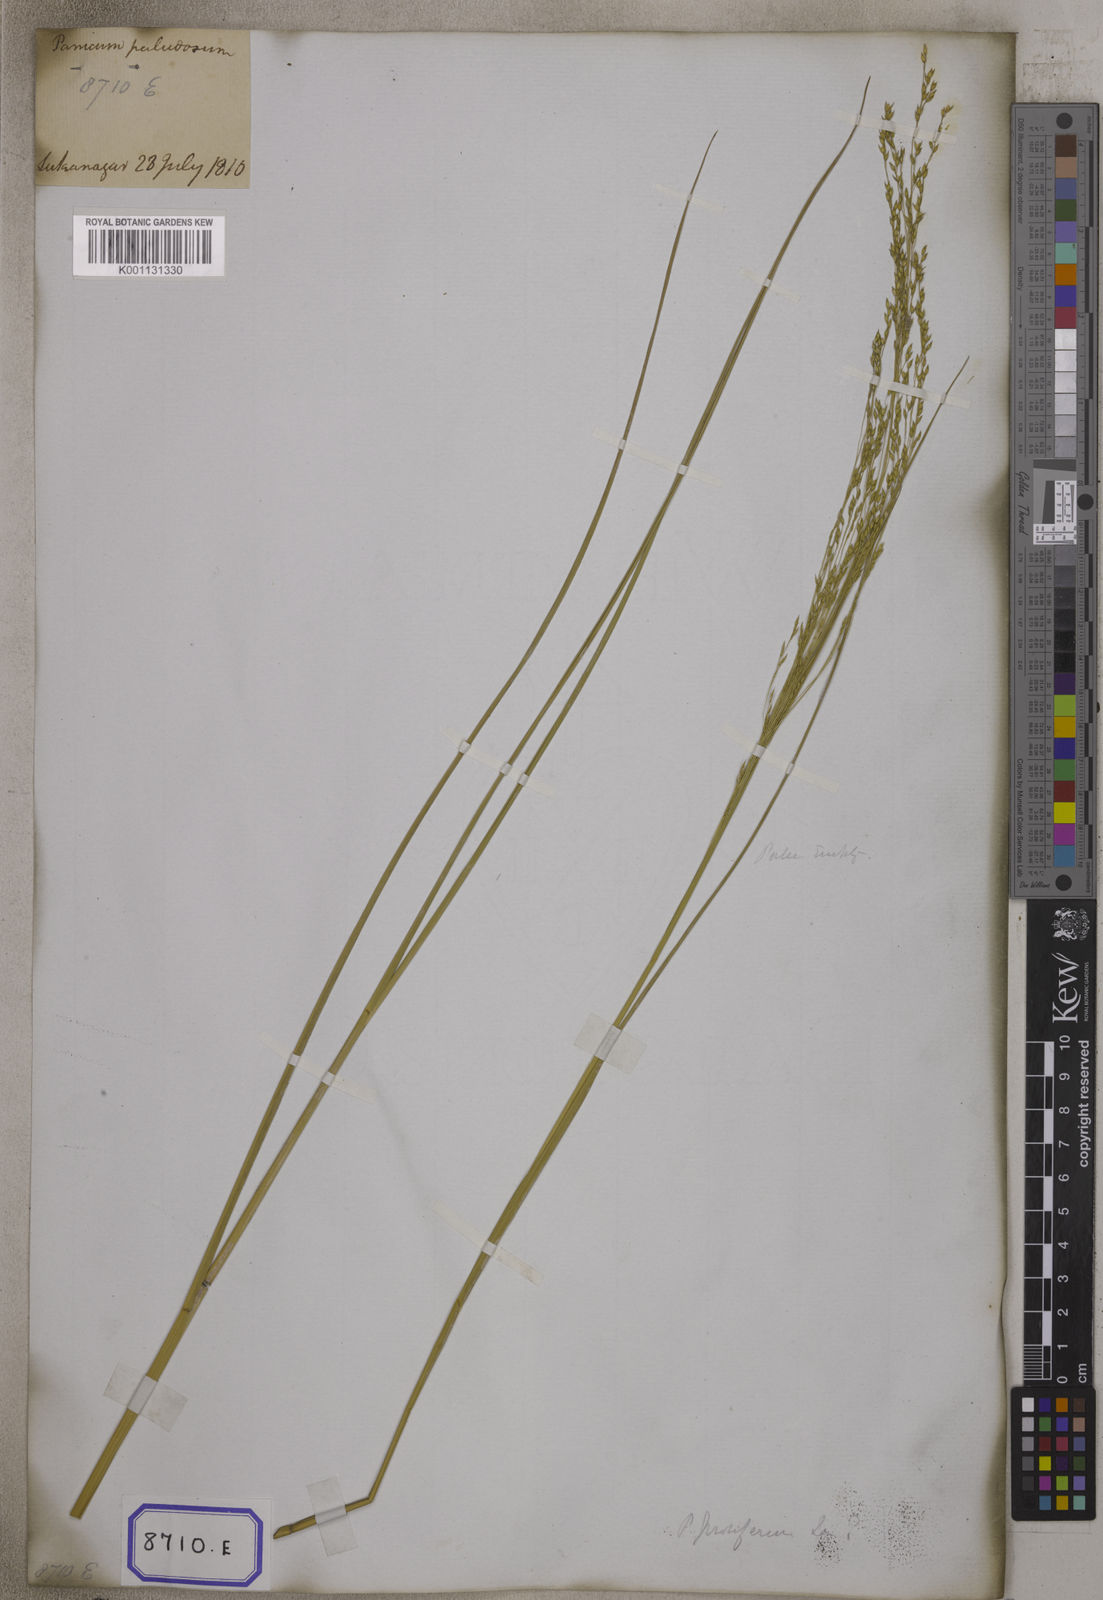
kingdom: Plantae
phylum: Tracheophyta
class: Liliopsida
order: Poales
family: Poaceae
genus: Panicum
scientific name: Panicum repens
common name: Torpedo grass
